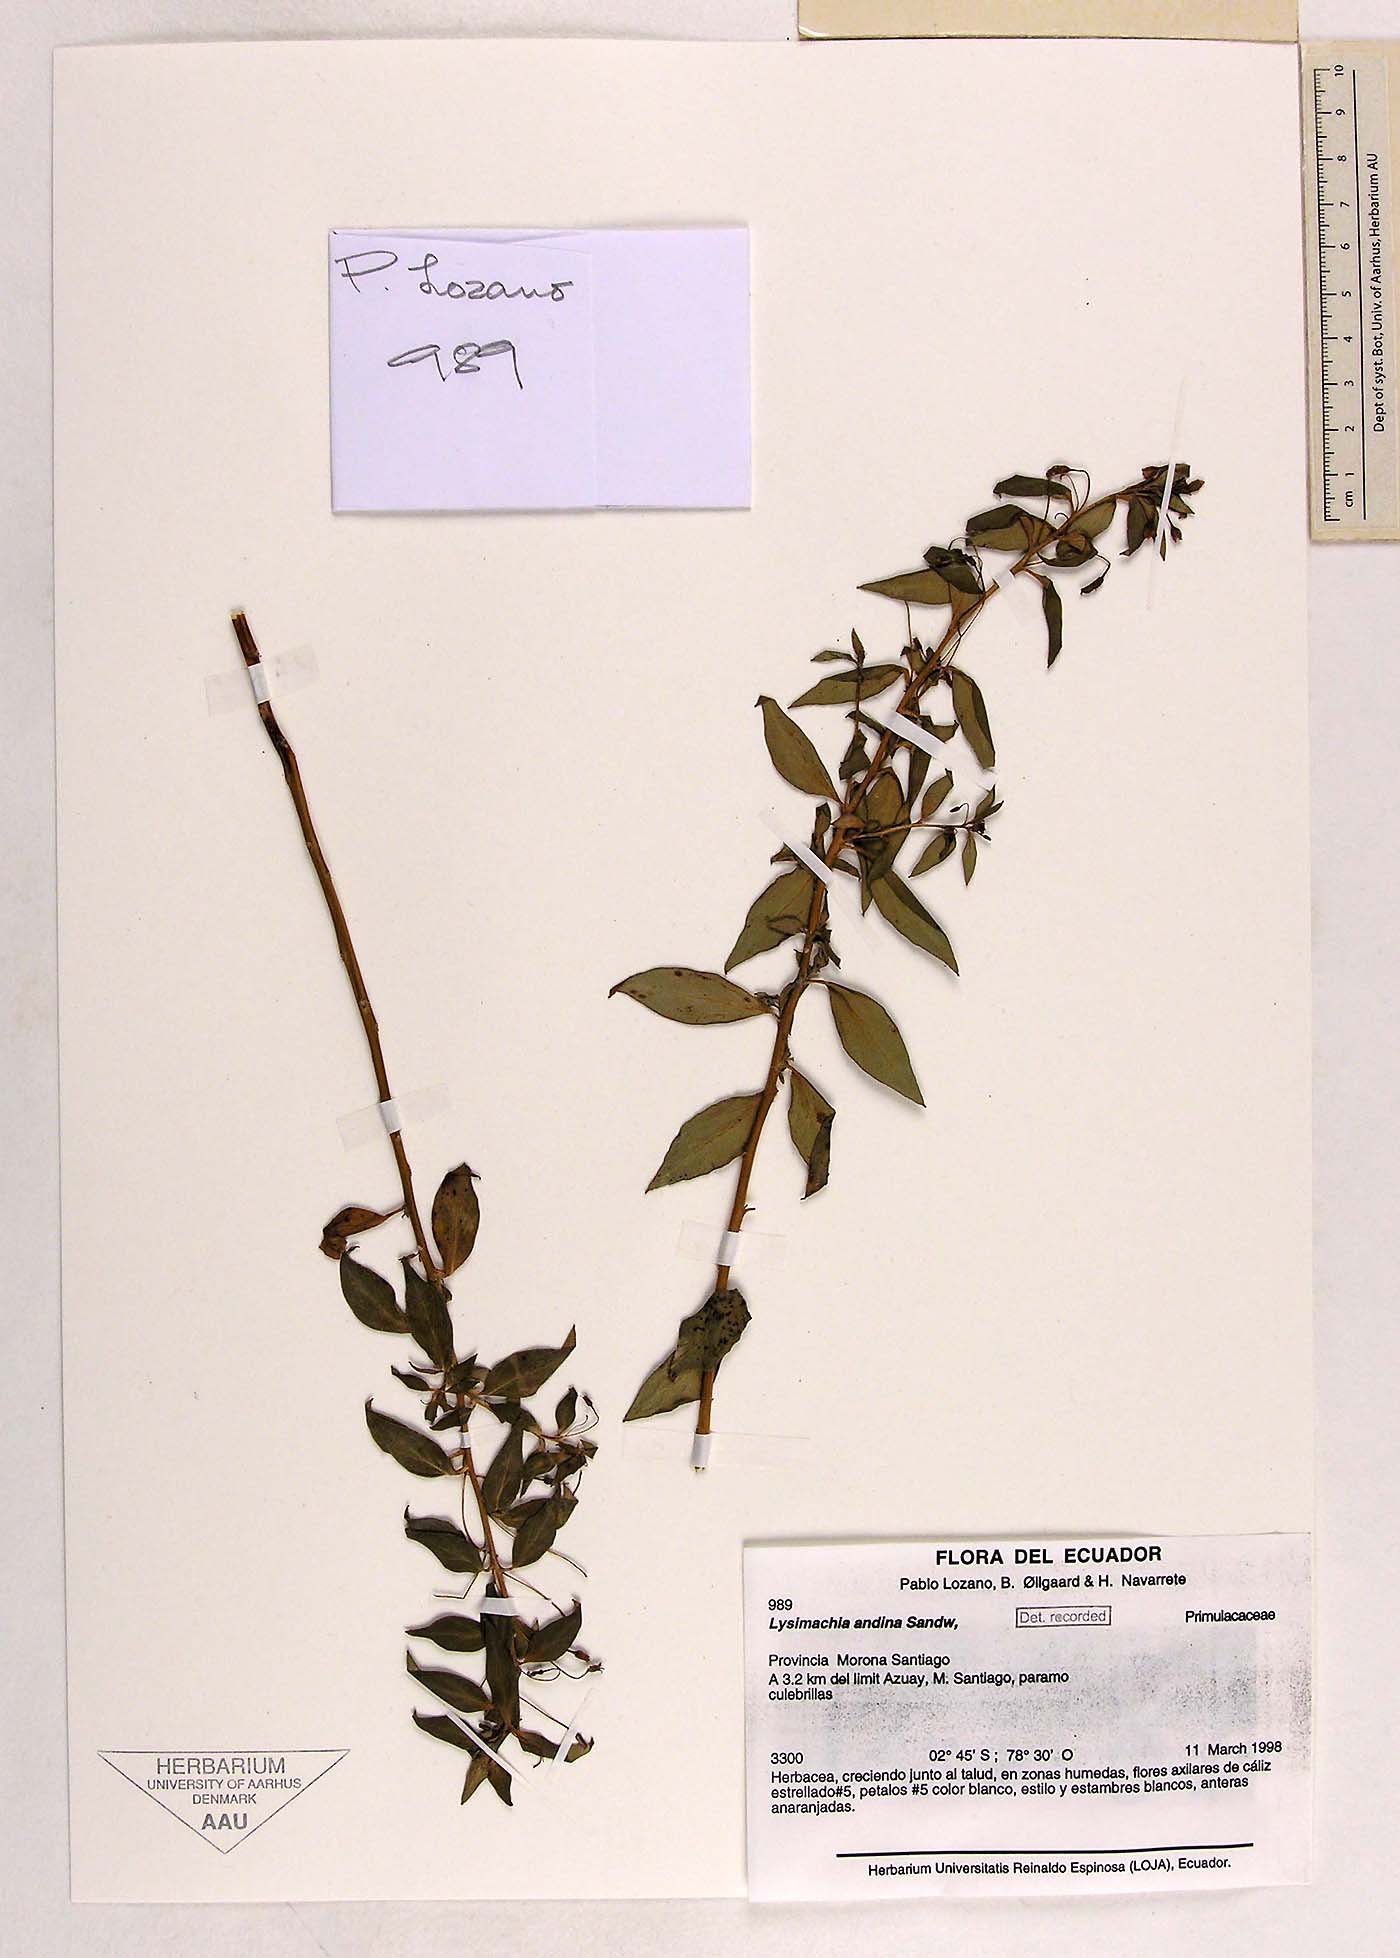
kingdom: Plantae
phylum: Tracheophyta
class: Magnoliopsida
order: Ericales
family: Primulaceae
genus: Lysimachia
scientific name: Lysimachia andina
